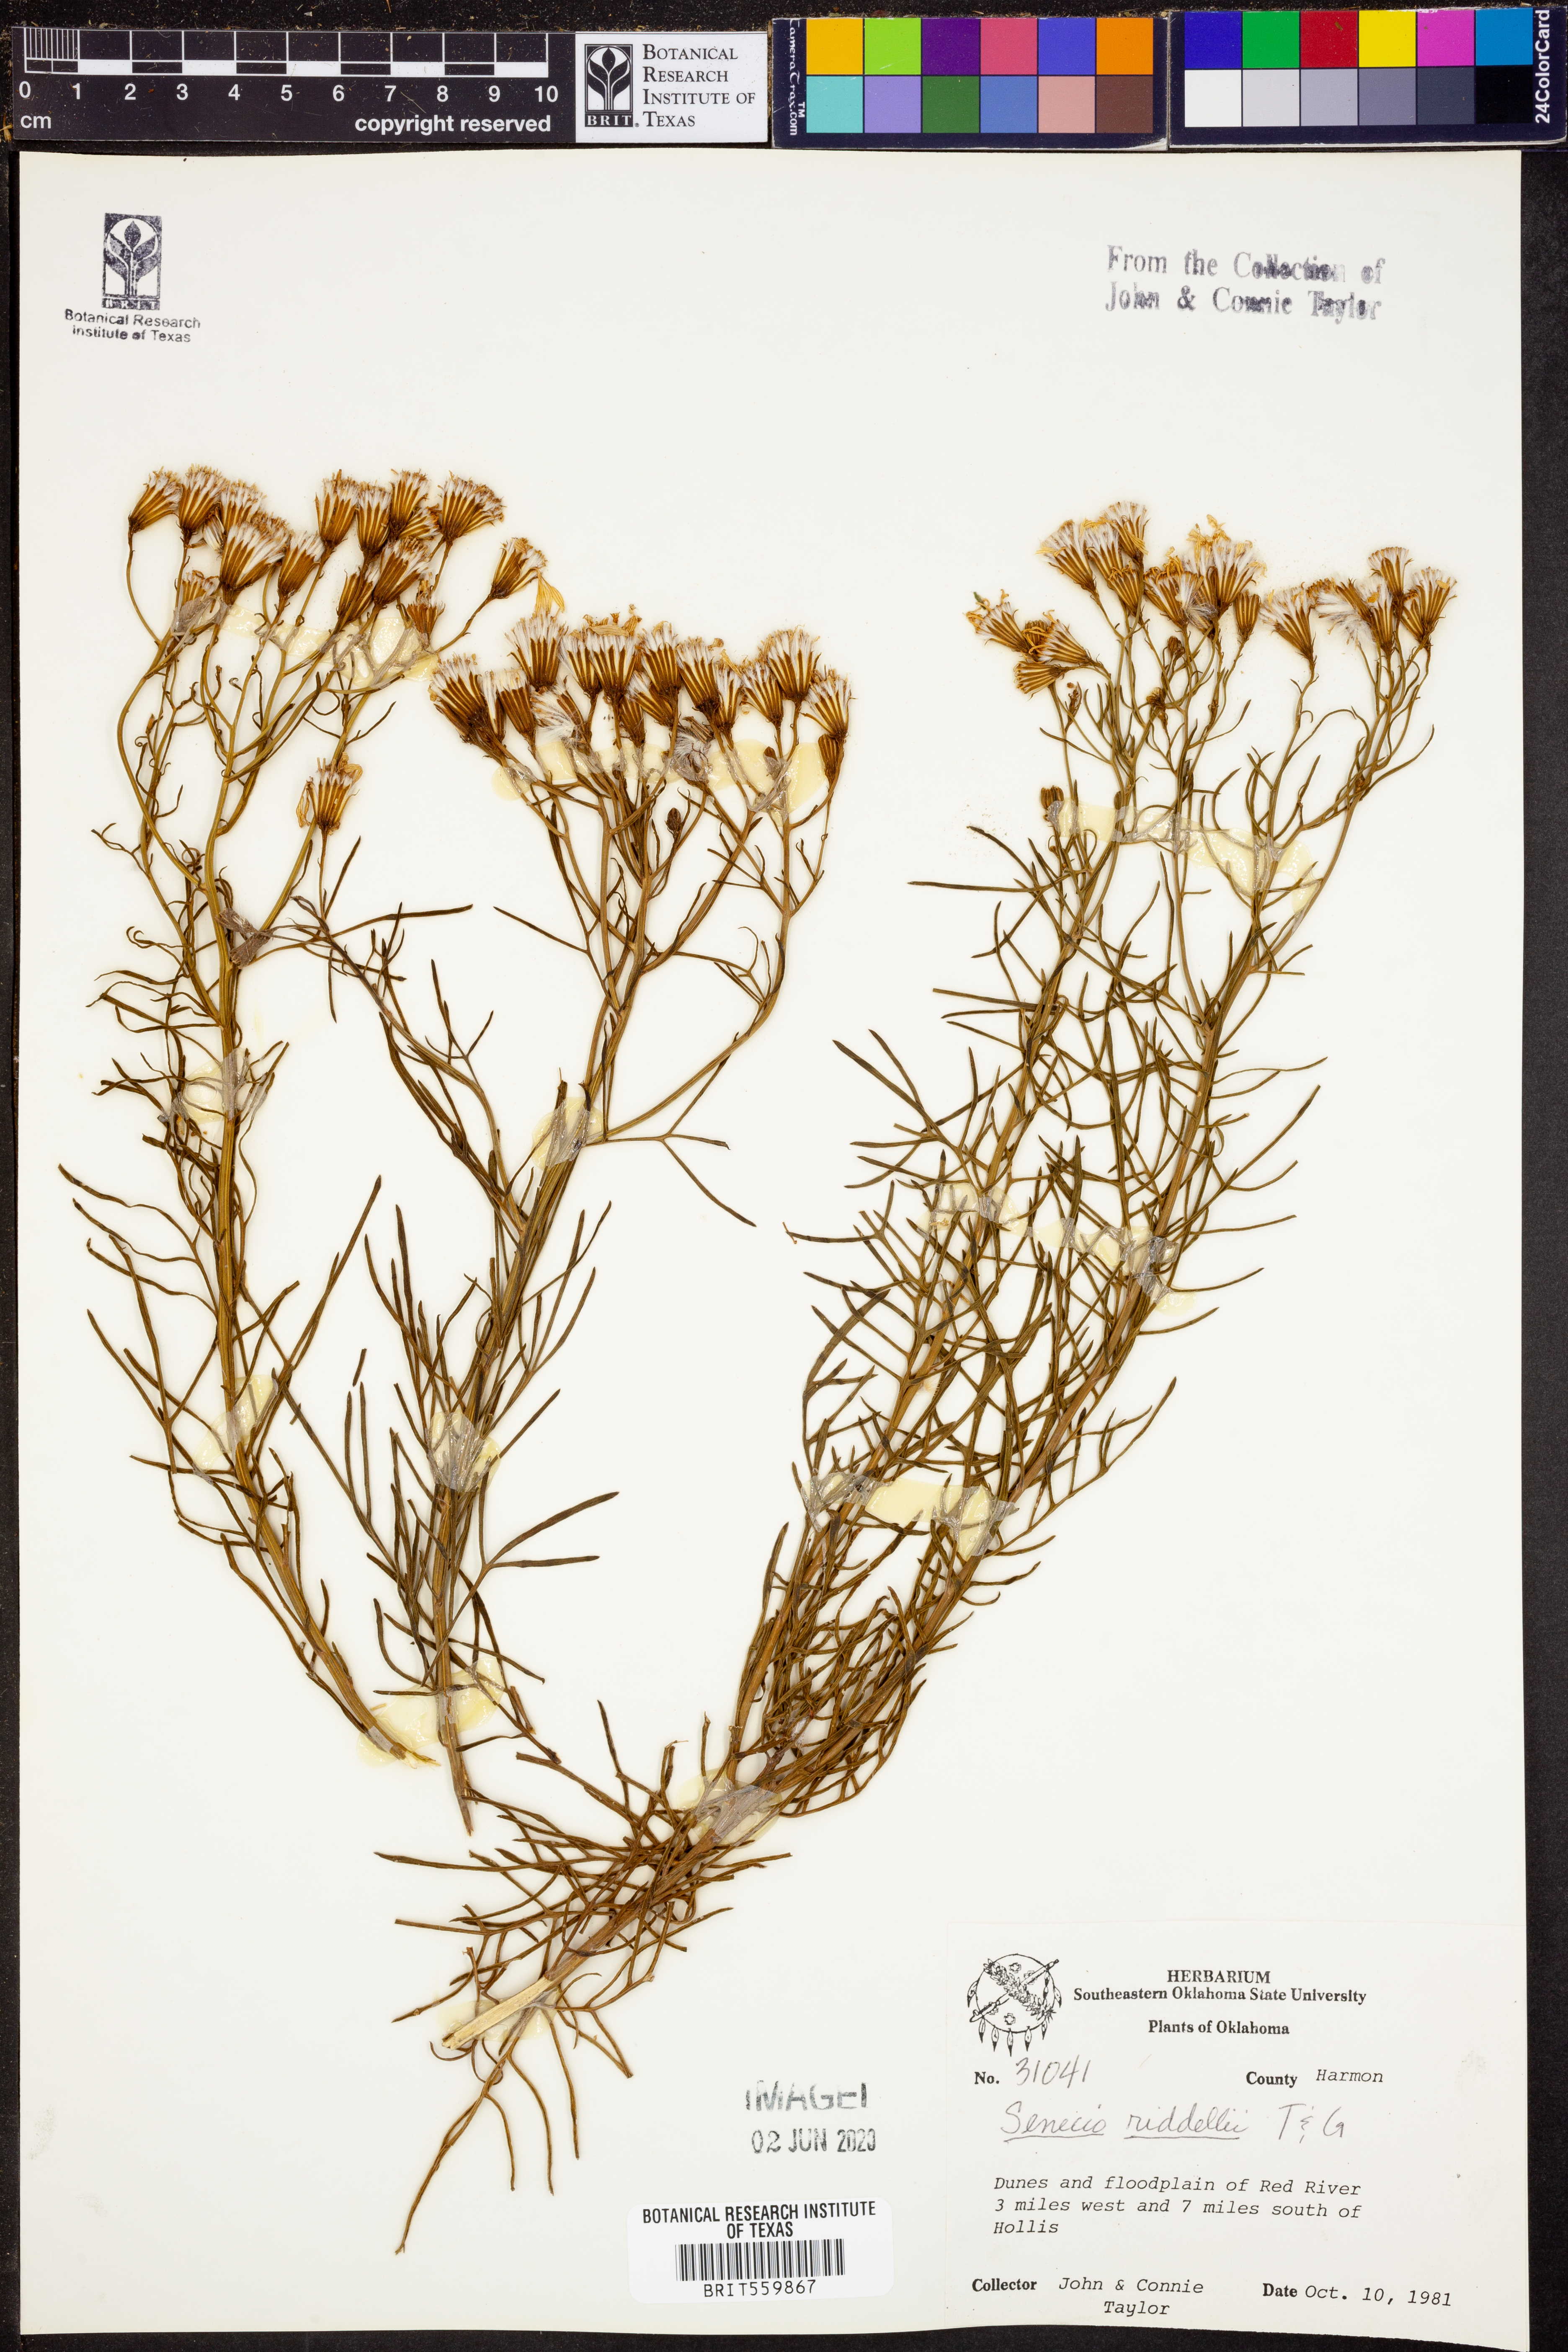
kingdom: Plantae
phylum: Tracheophyta
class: Magnoliopsida
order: Asterales
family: Asteraceae
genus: Senecio
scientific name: Senecio riddellii
